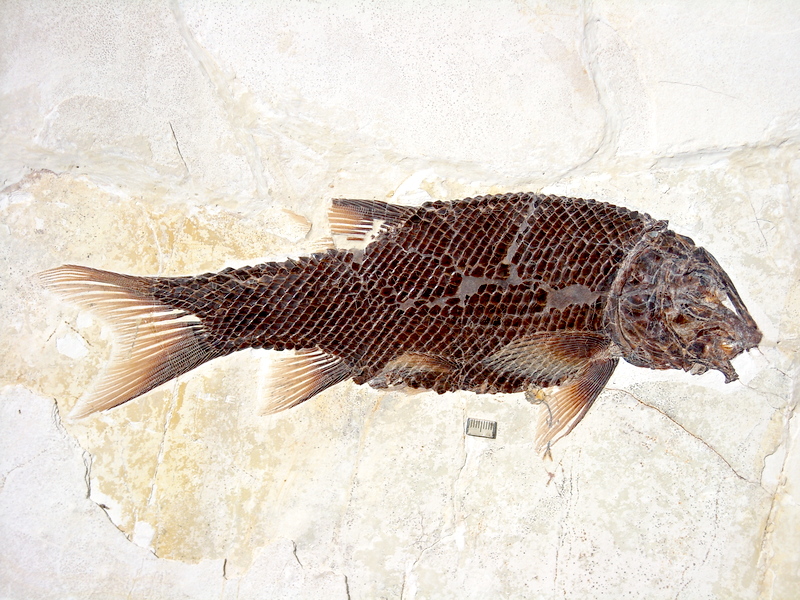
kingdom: Animalia
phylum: Chordata
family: Callipurbeckiidae
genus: Macrosemimimus
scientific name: Macrosemimimus fegerti
